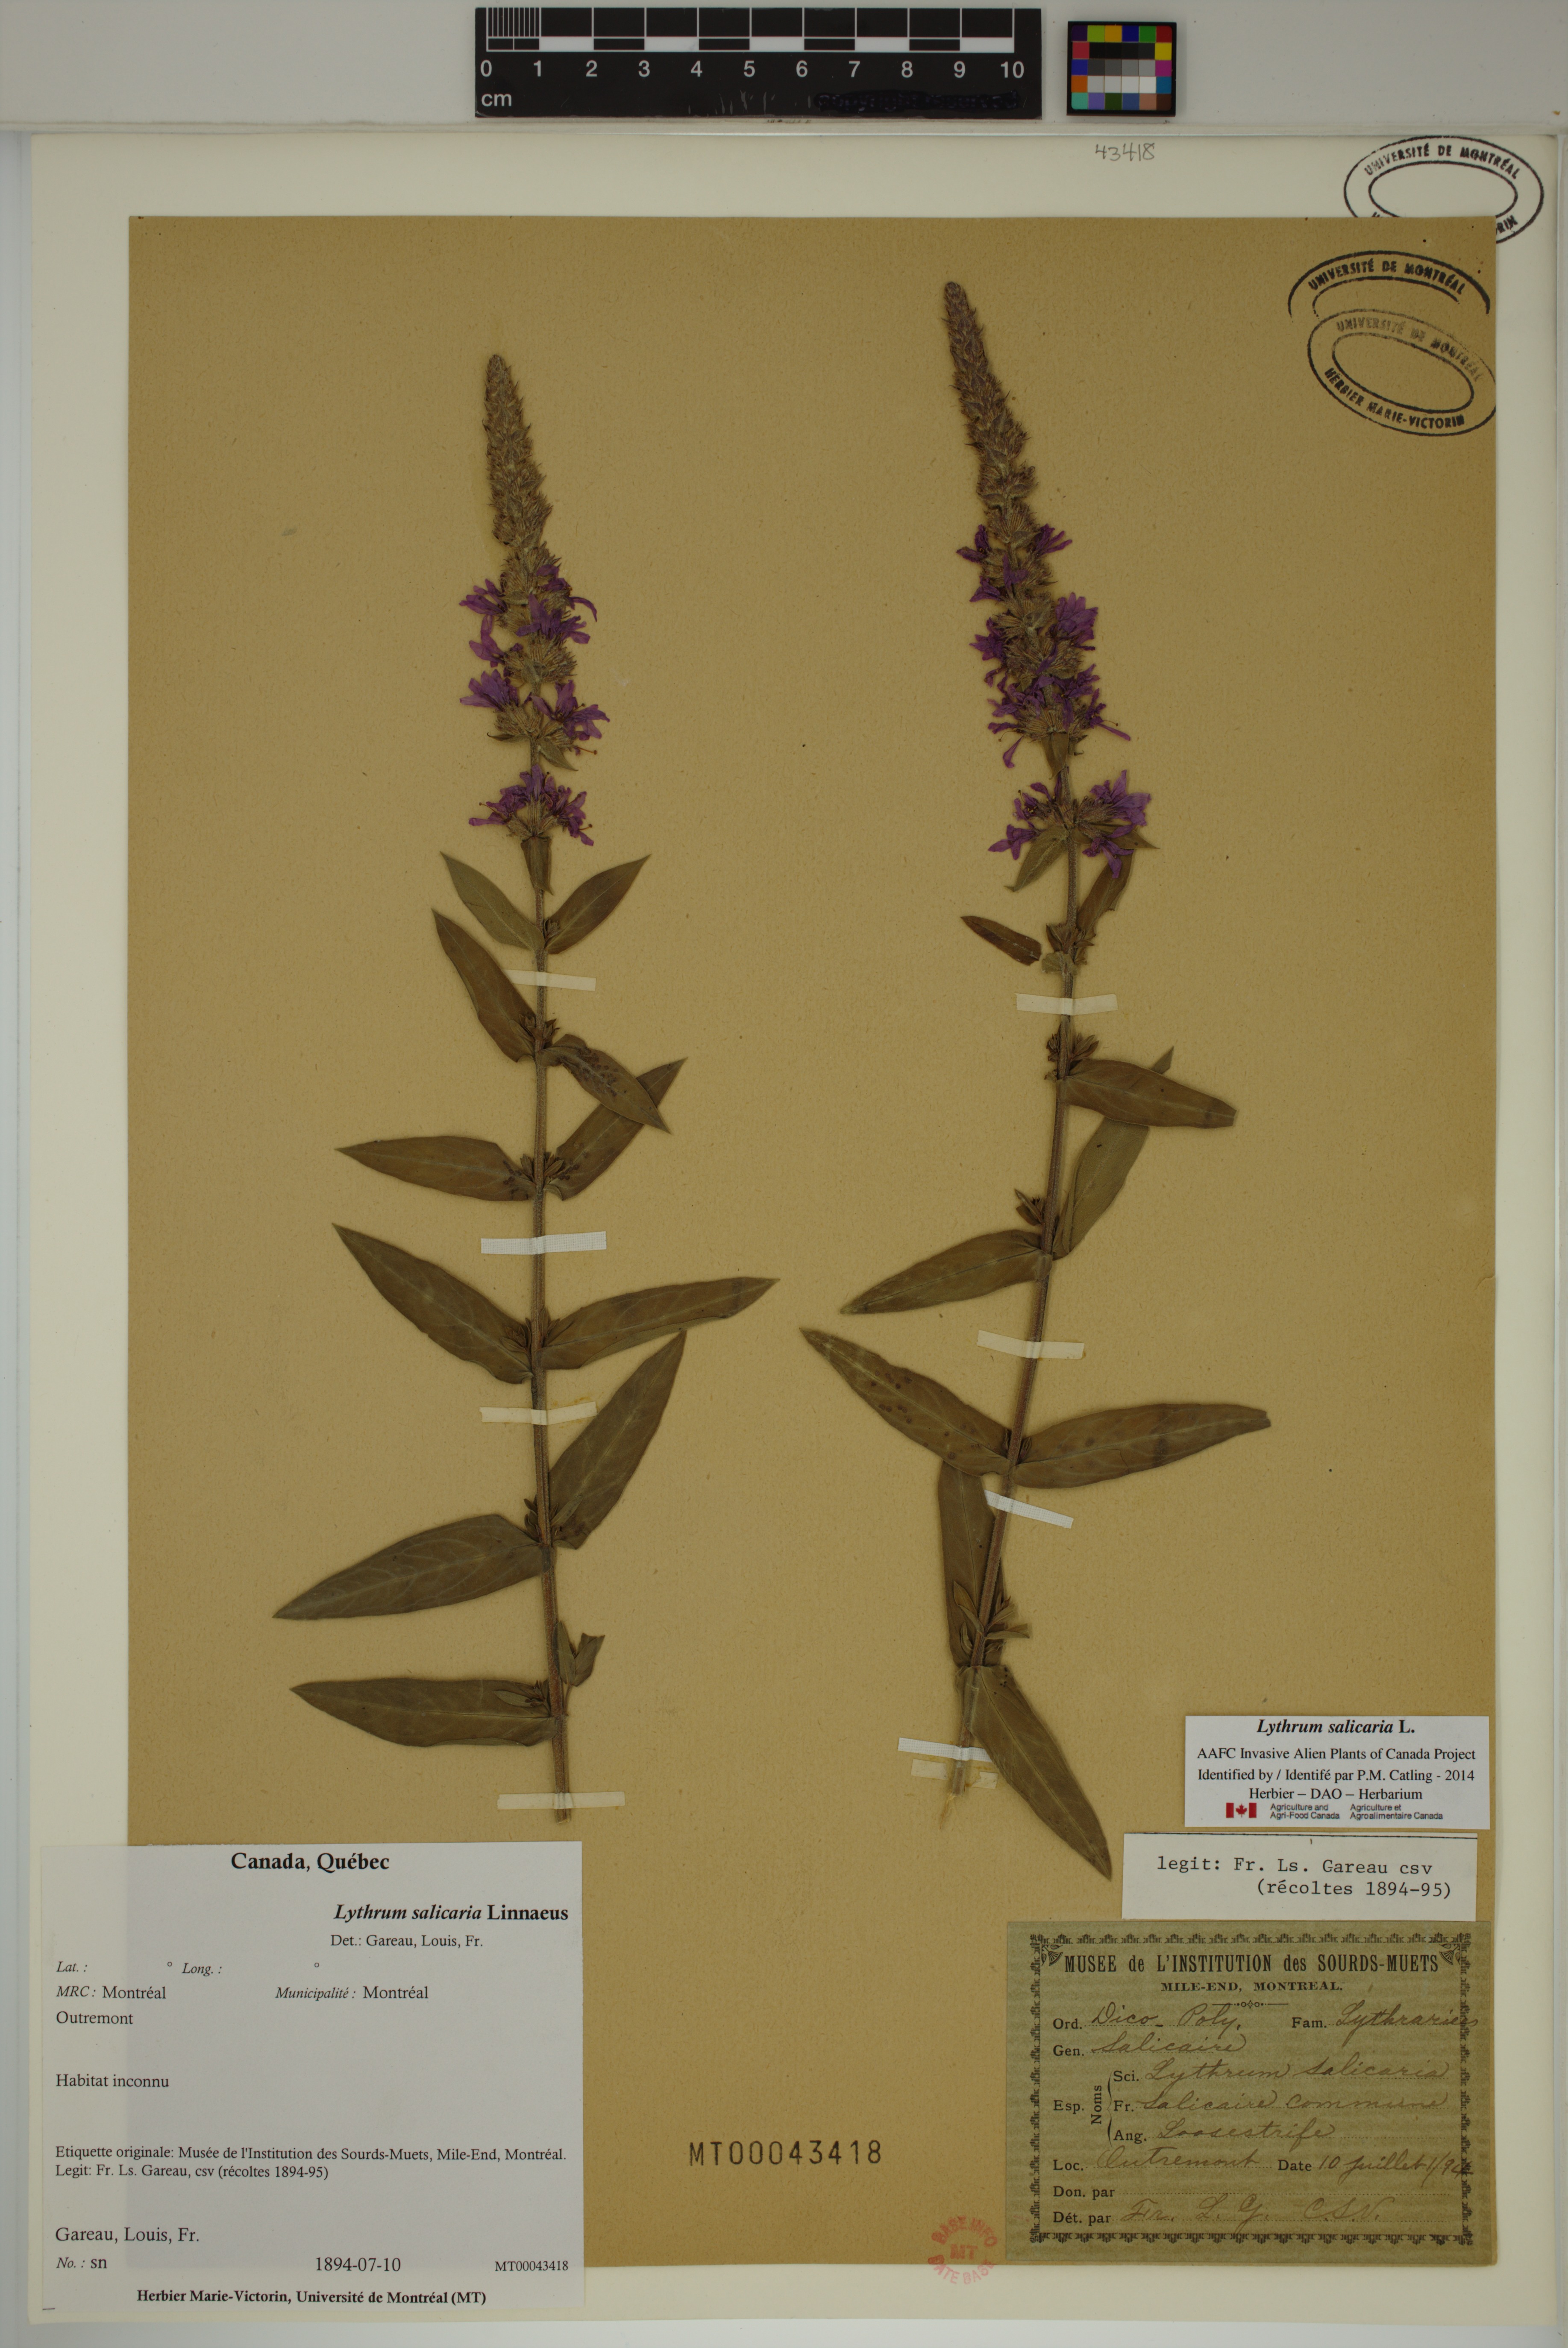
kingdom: Plantae
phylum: Tracheophyta
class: Magnoliopsida
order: Myrtales
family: Lythraceae
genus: Lythrum
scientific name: Lythrum salicaria
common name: Purple loosestrife
